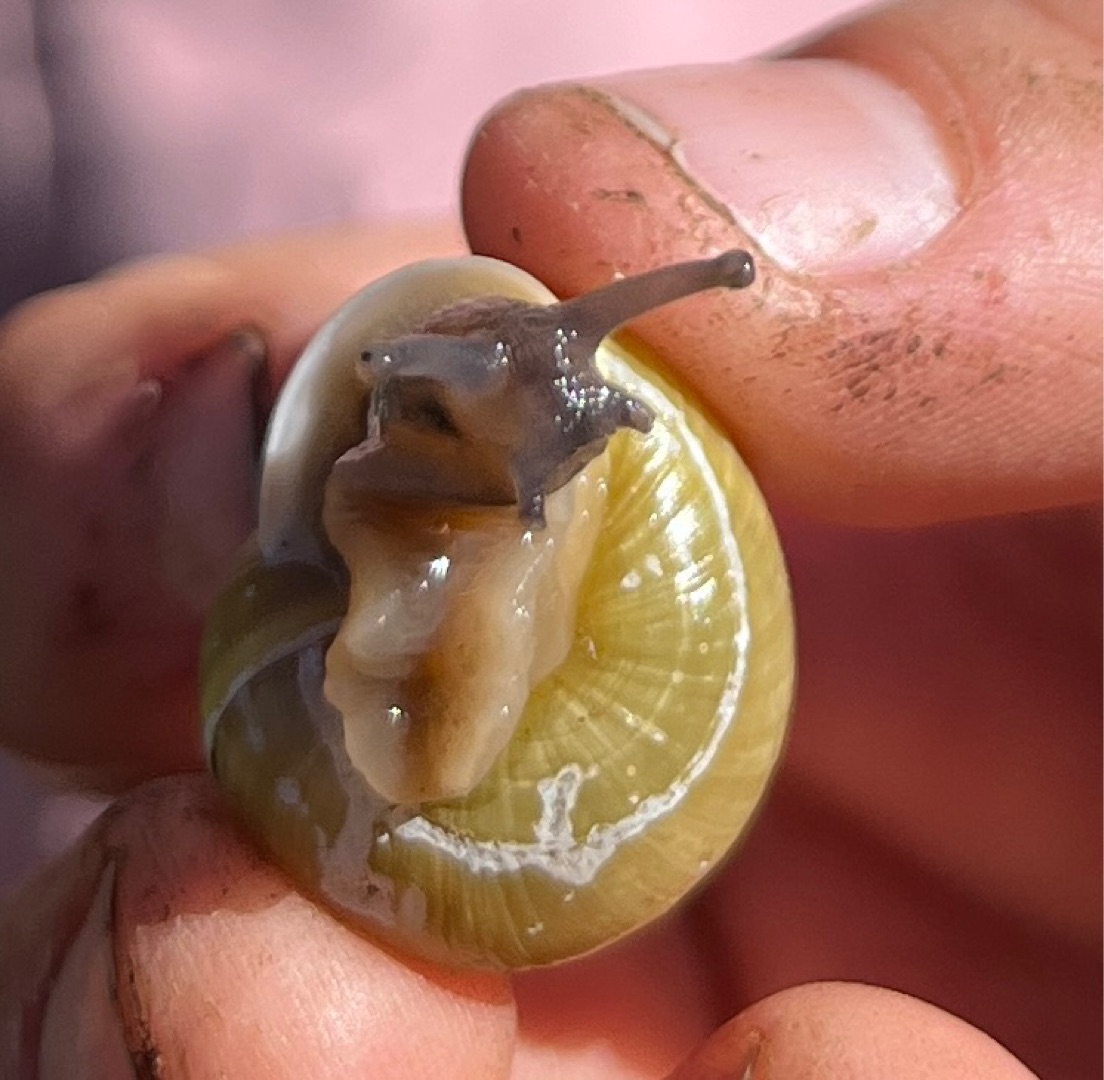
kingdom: Animalia
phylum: Mollusca
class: Gastropoda
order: Stylommatophora
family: Helicidae
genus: Cepaea
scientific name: Cepaea hortensis
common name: Havesnegl
